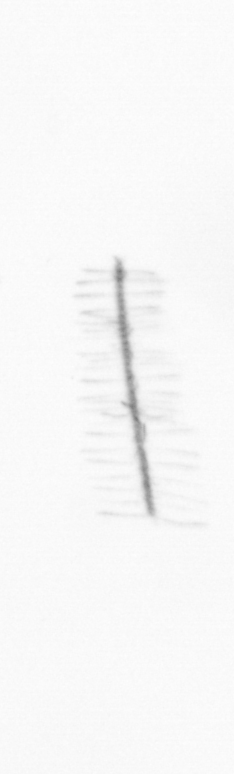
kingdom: Chromista
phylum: Ochrophyta
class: Bacillariophyceae
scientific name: Bacillariophyceae
